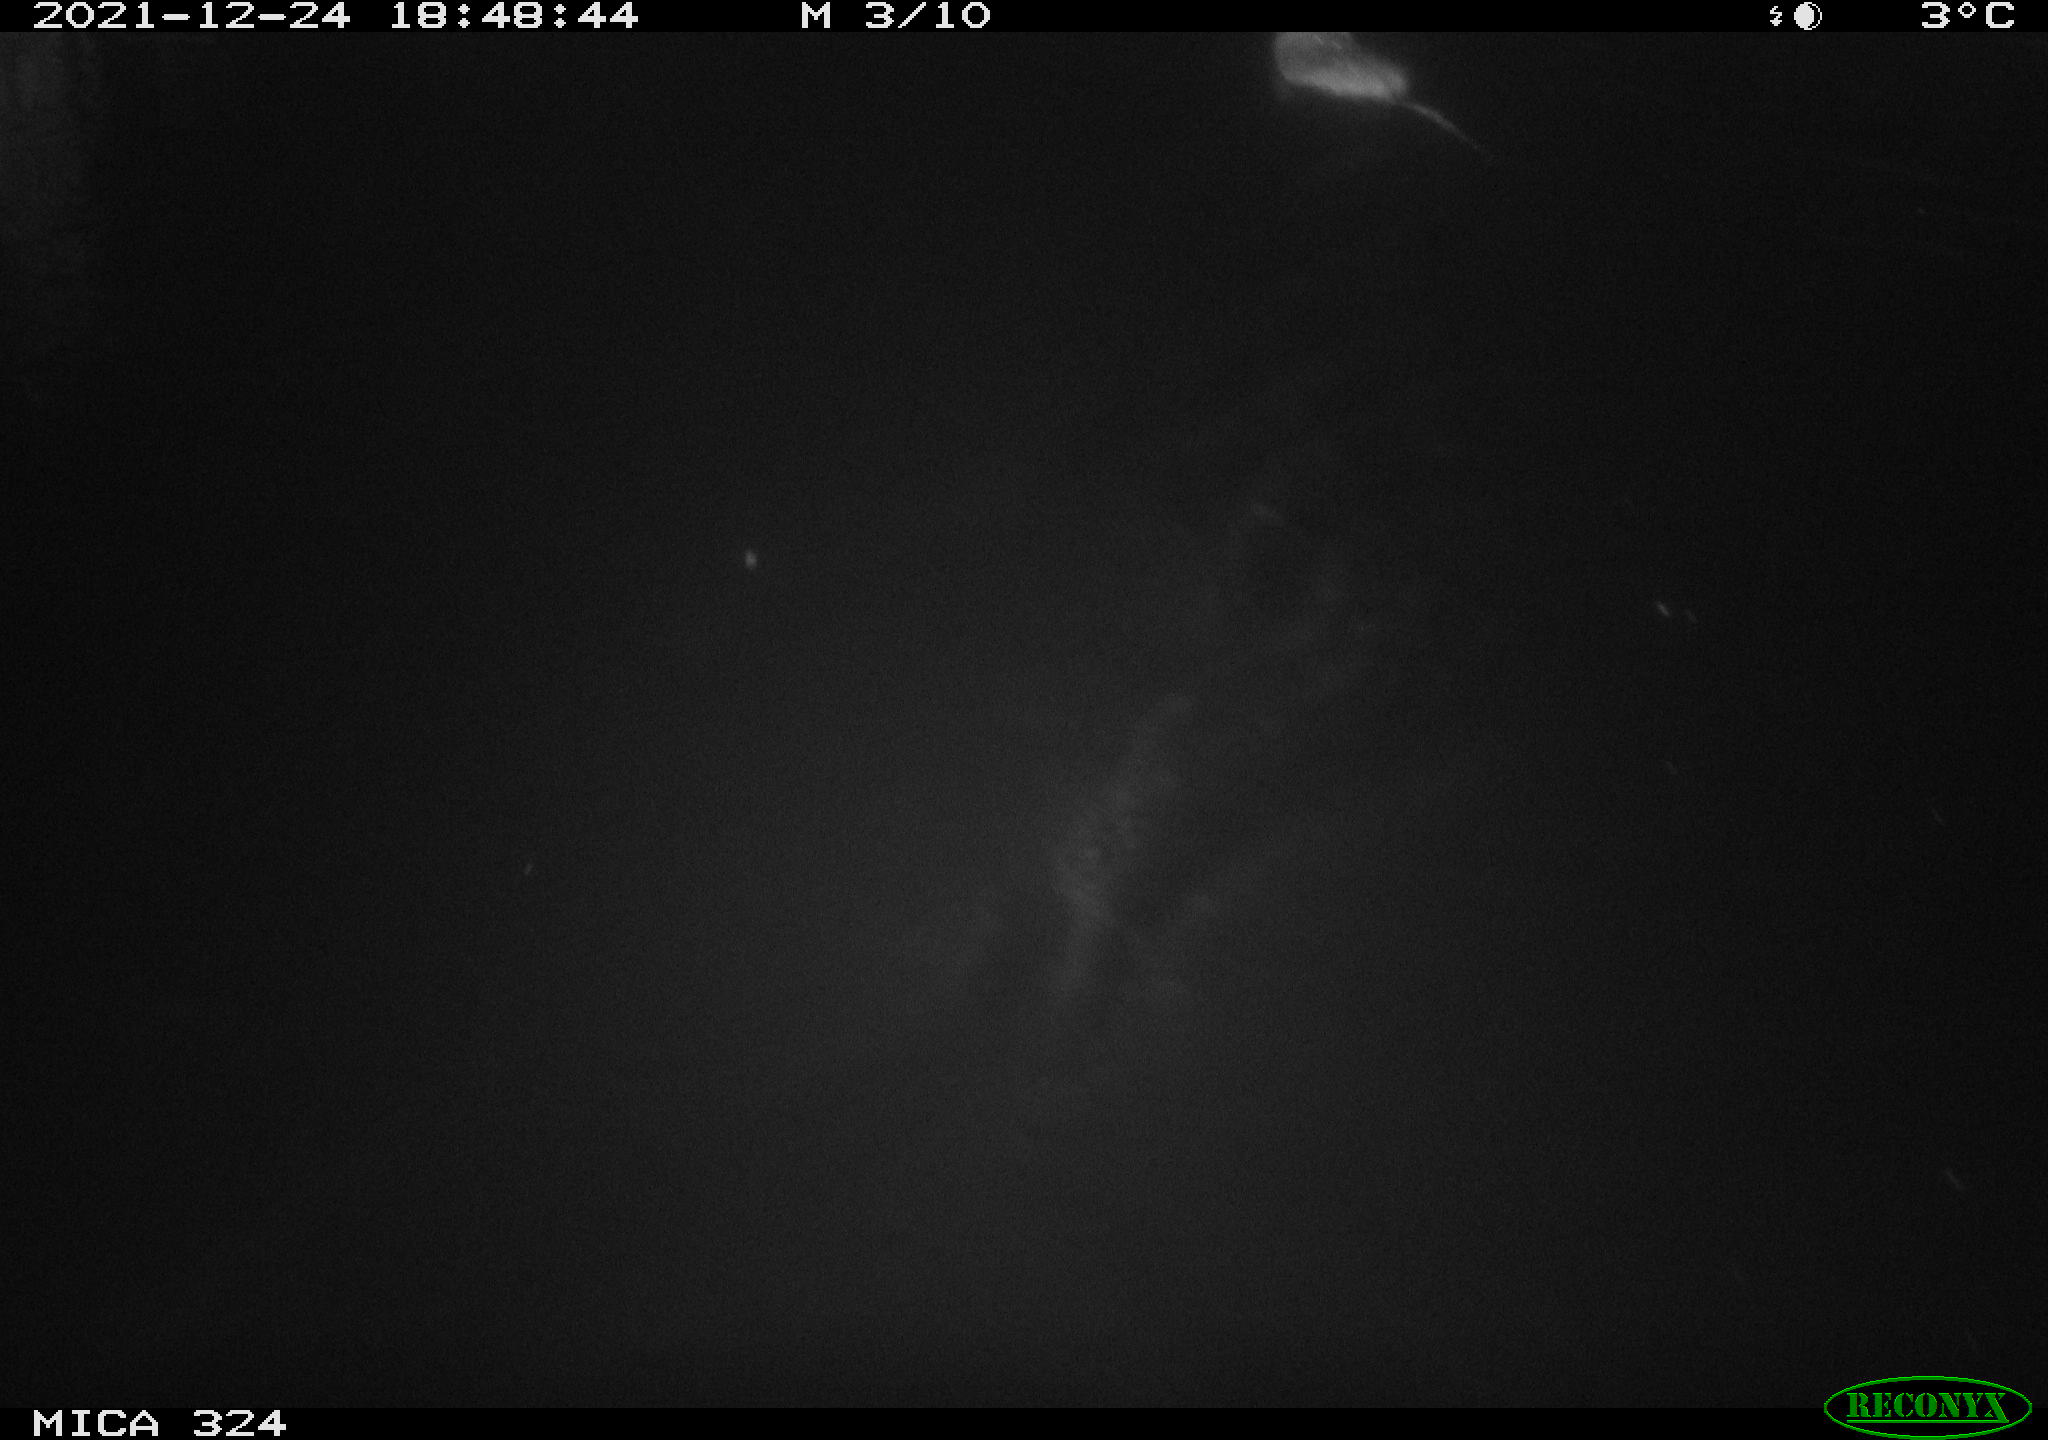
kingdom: Animalia
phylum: Chordata
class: Mammalia
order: Rodentia
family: Cricetidae
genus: Ondatra
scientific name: Ondatra zibethicus
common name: Muskrat
